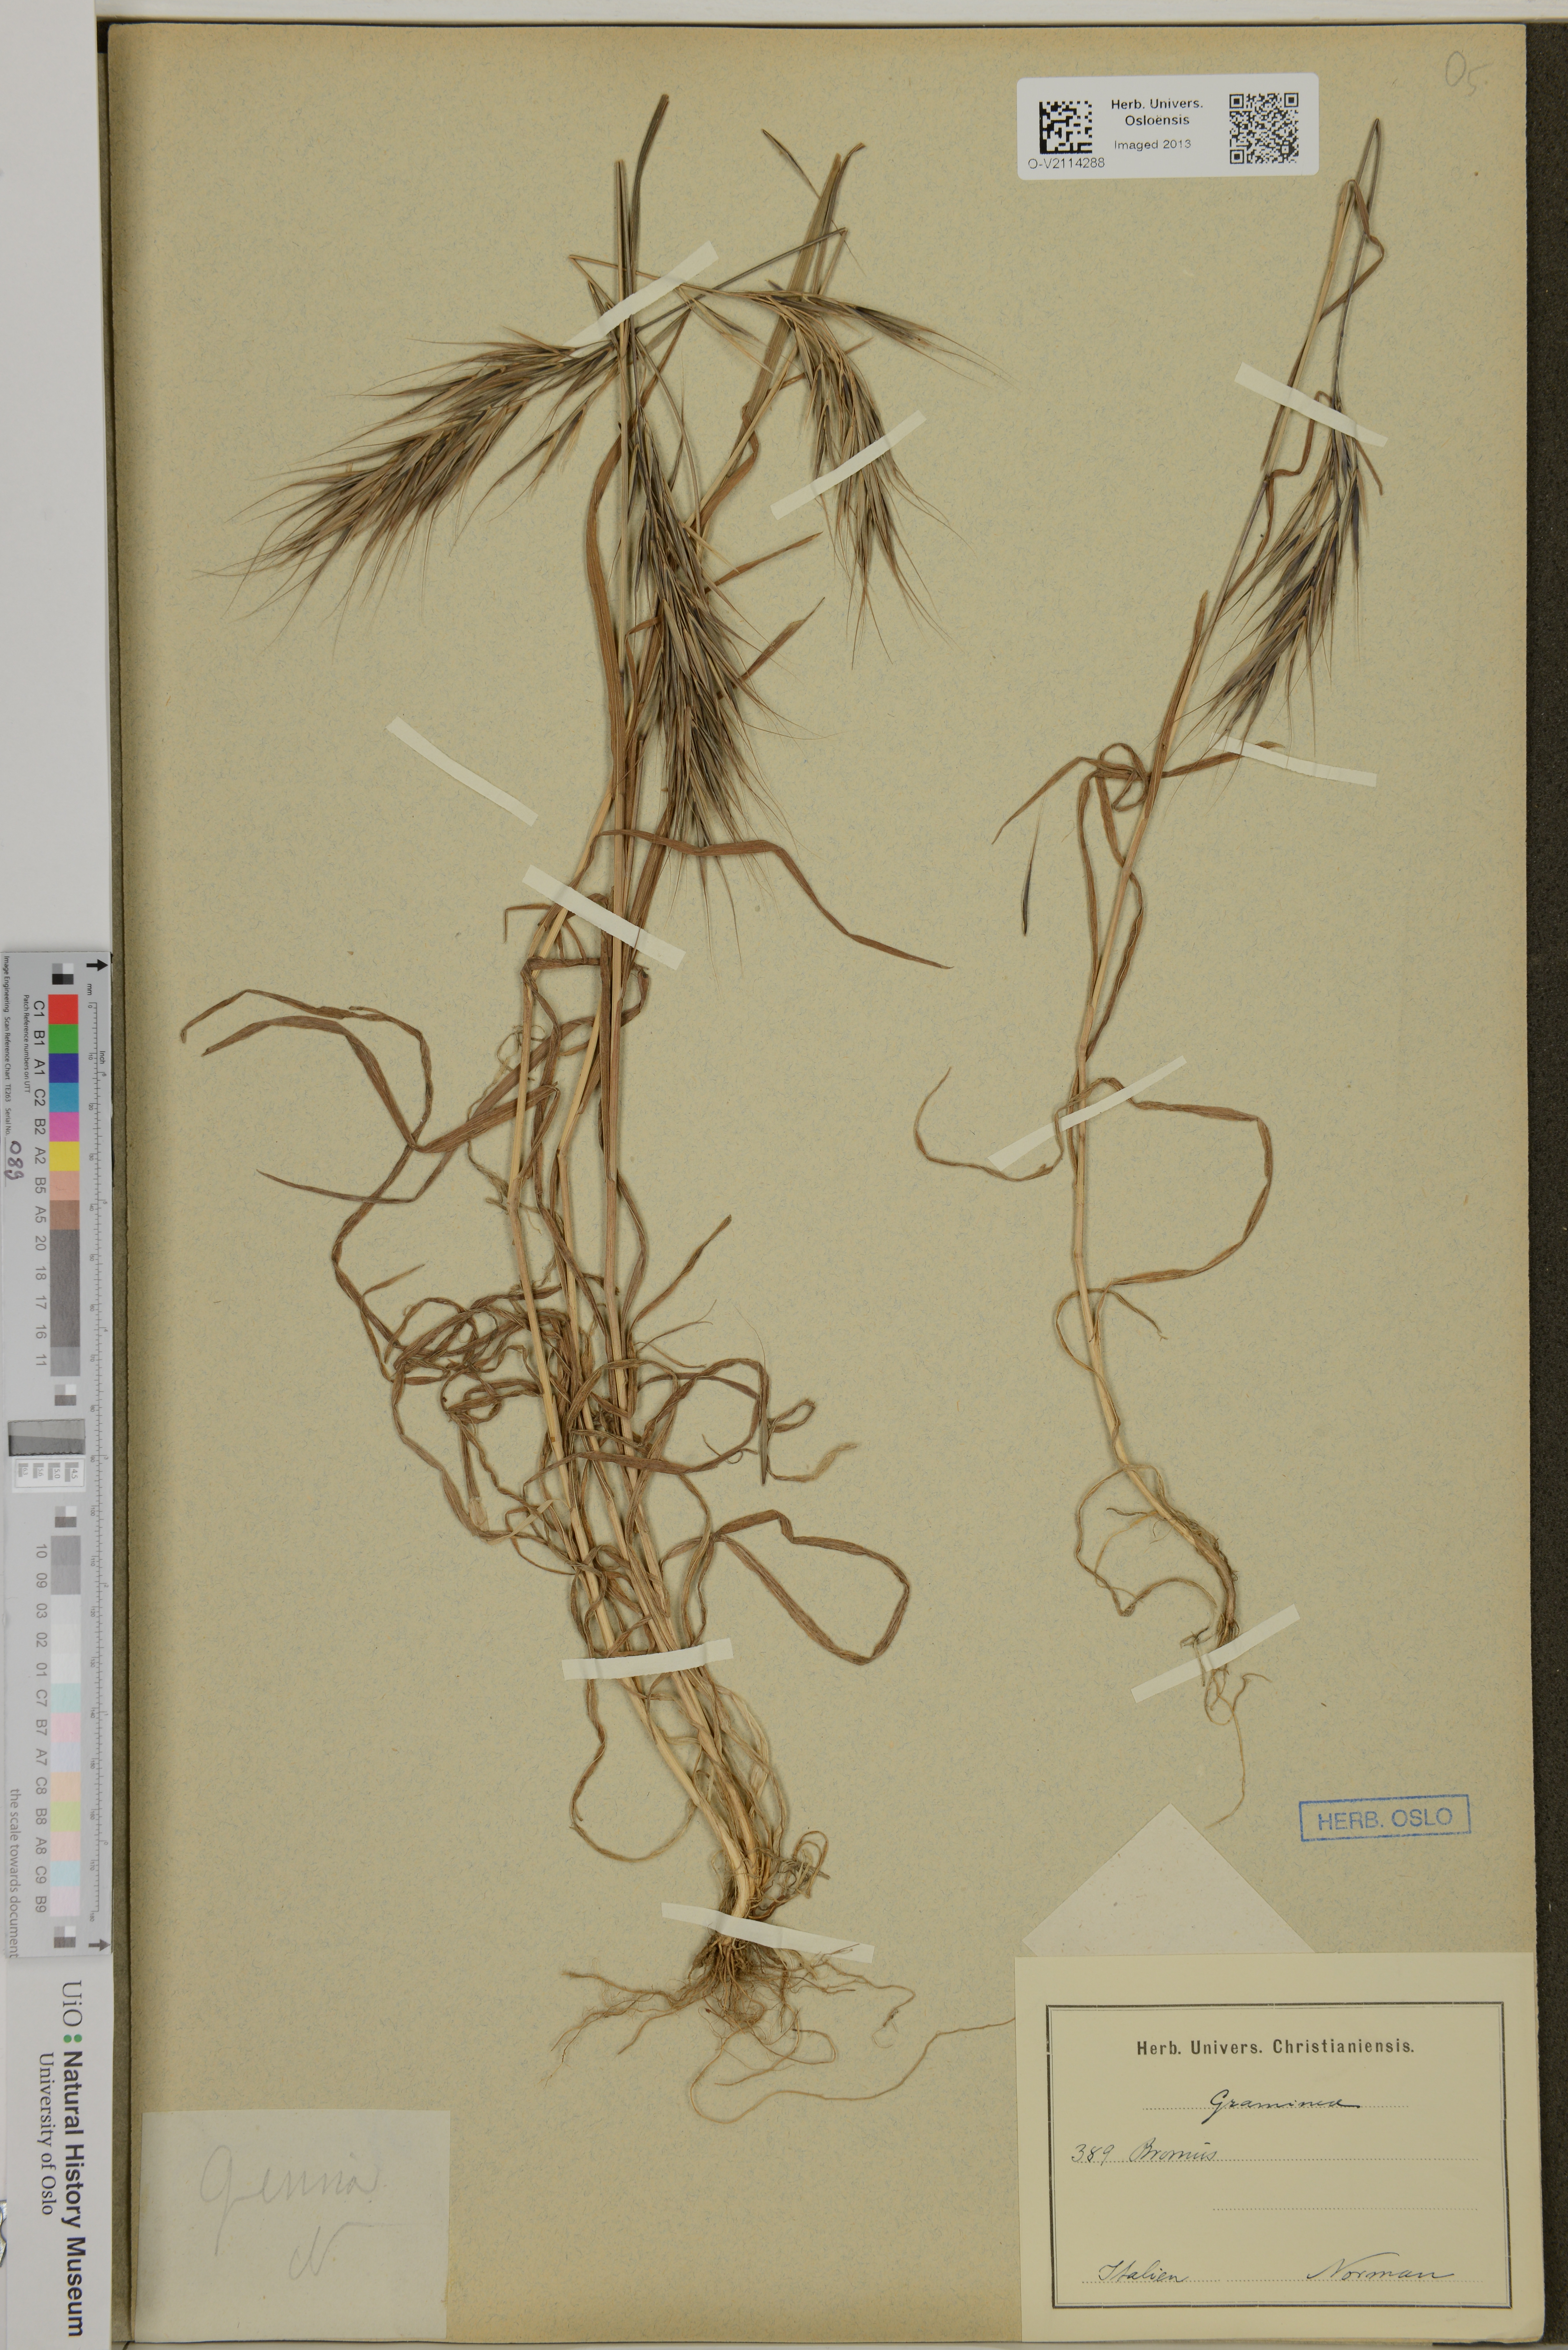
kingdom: Plantae
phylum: Tracheophyta
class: Liliopsida
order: Poales
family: Poaceae
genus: Bromus
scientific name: Bromus
